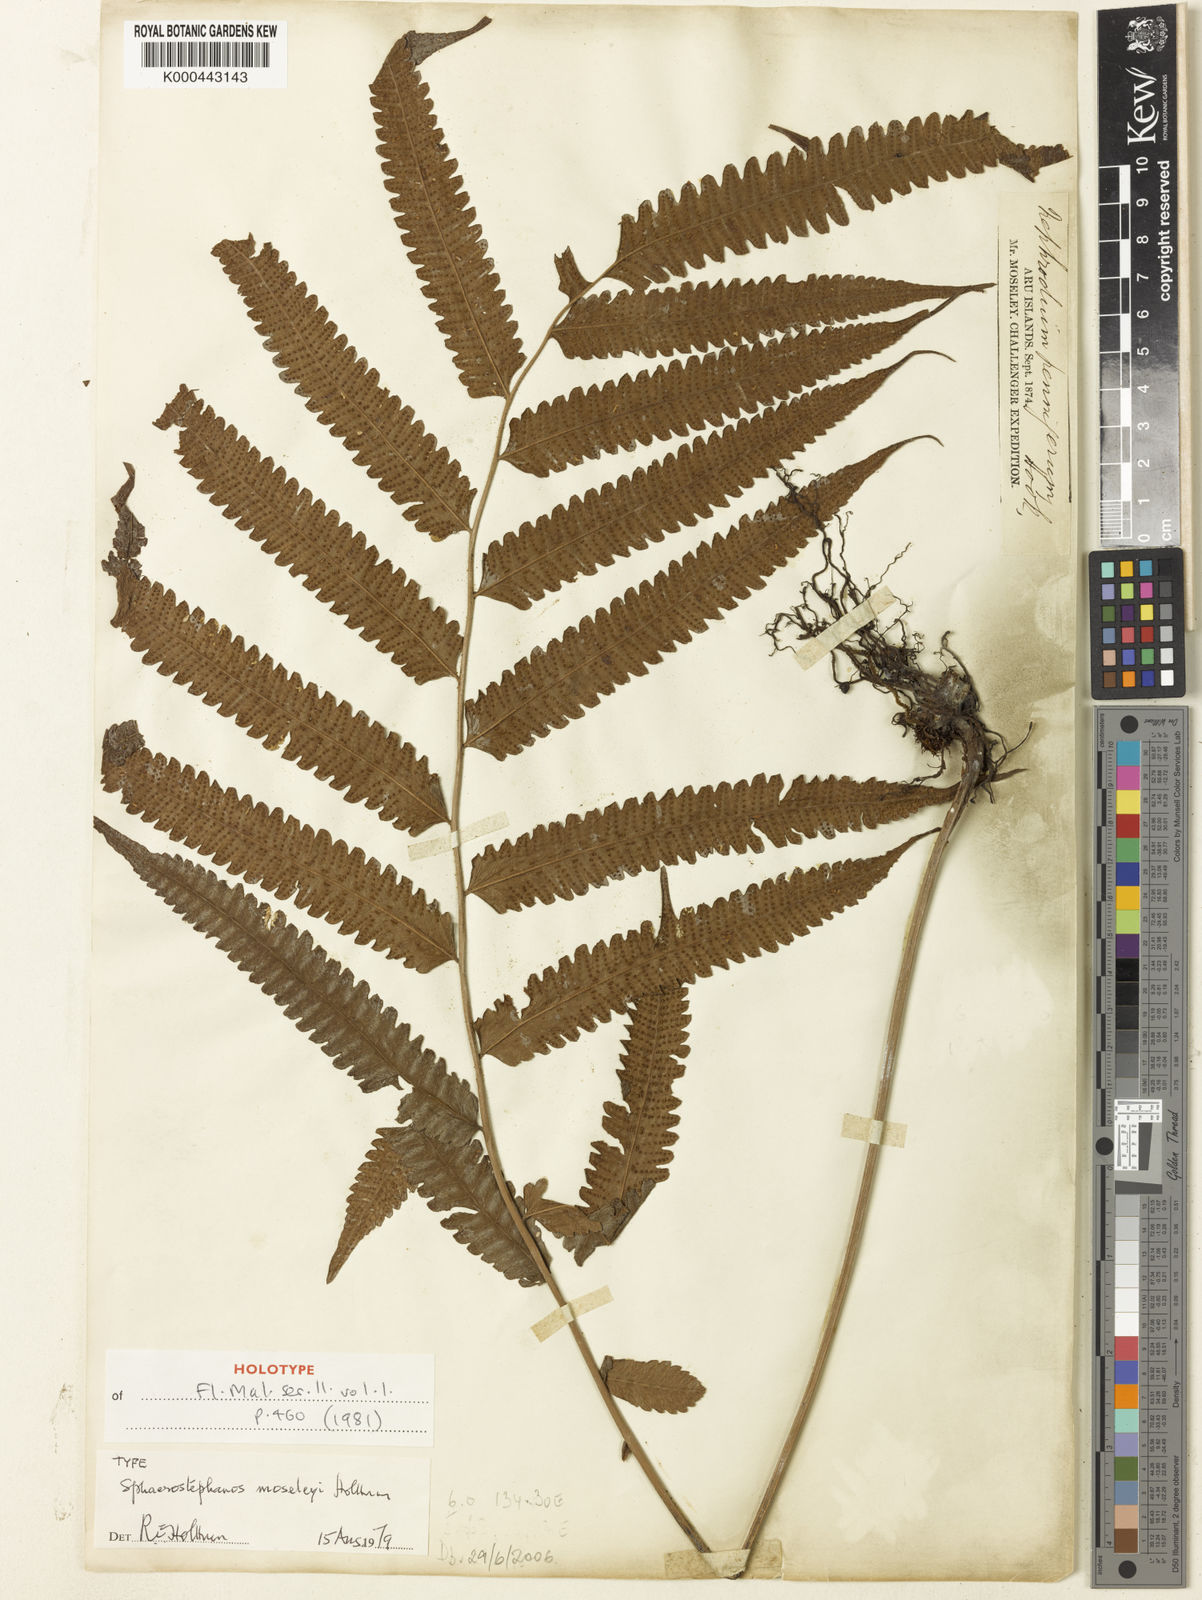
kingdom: Plantae
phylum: Tracheophyta
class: Polypodiopsida
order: Polypodiales
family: Thelypteridaceae
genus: Sphaerostephanos
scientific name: Sphaerostephanos moseleyi
